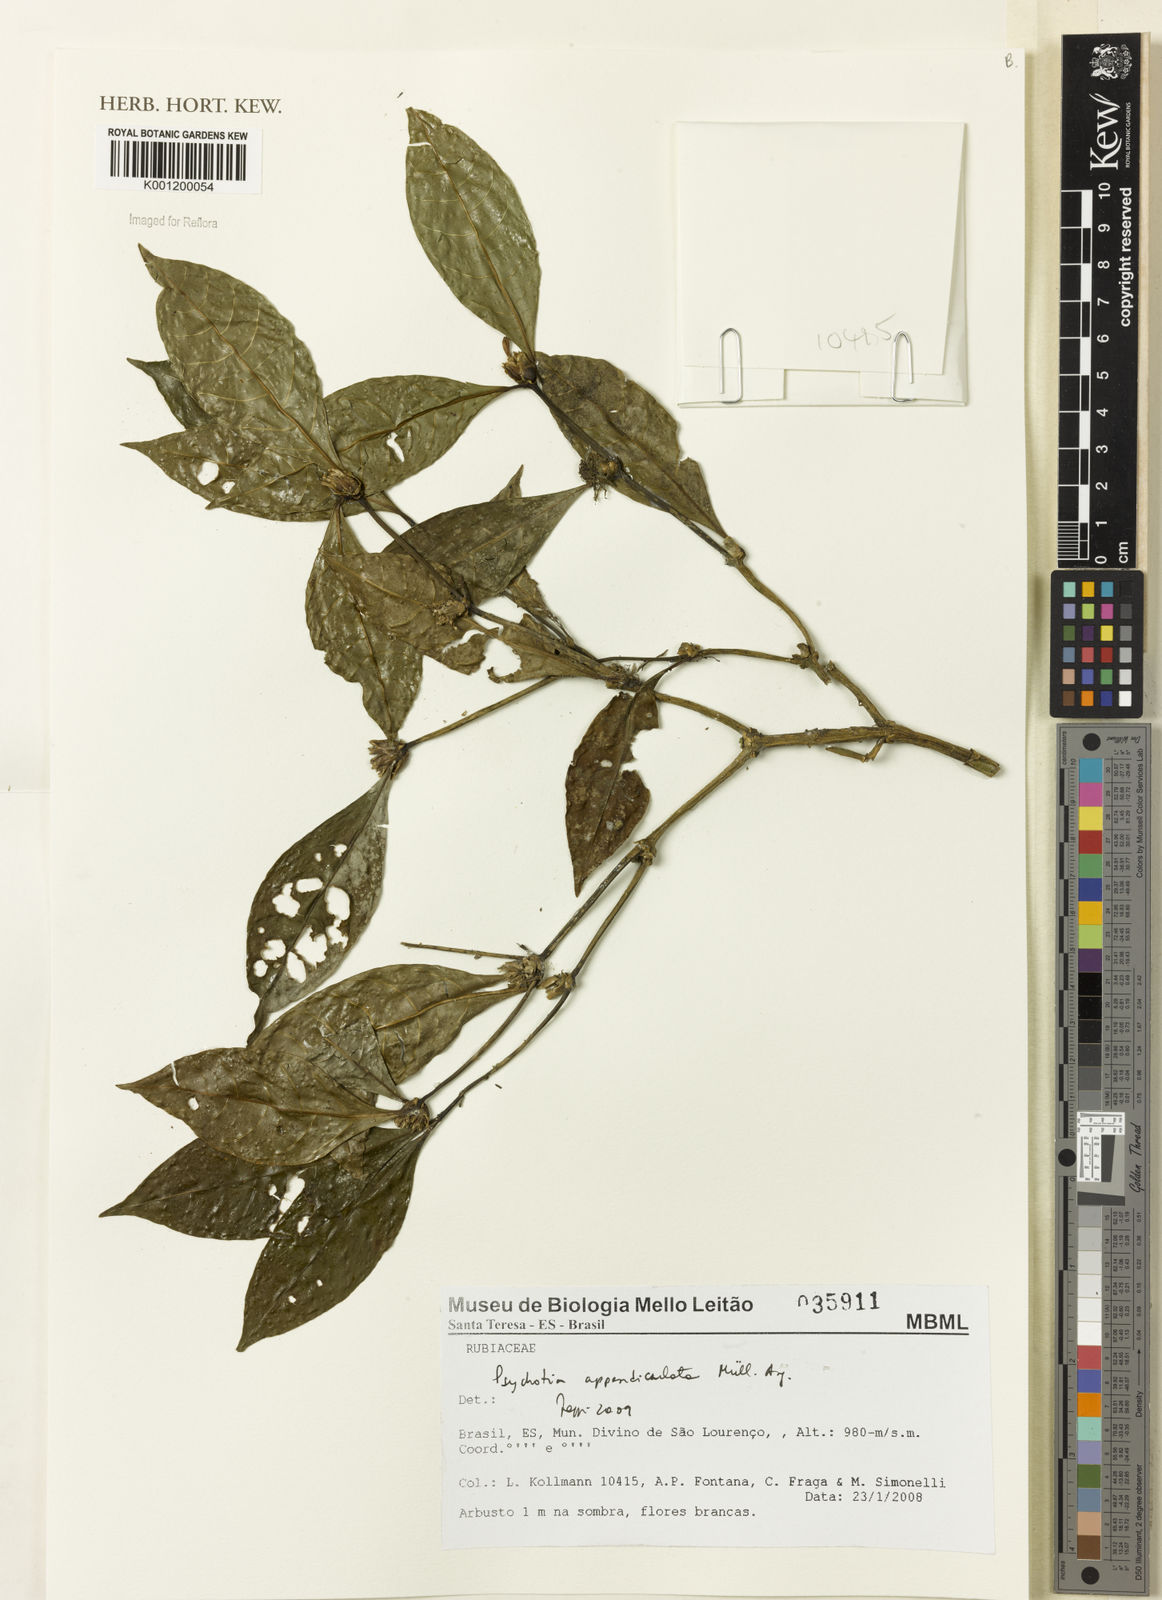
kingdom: Plantae
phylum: Tracheophyta
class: Magnoliopsida
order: Gentianales
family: Rubiaceae
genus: Psychotria
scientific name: Psychotria
